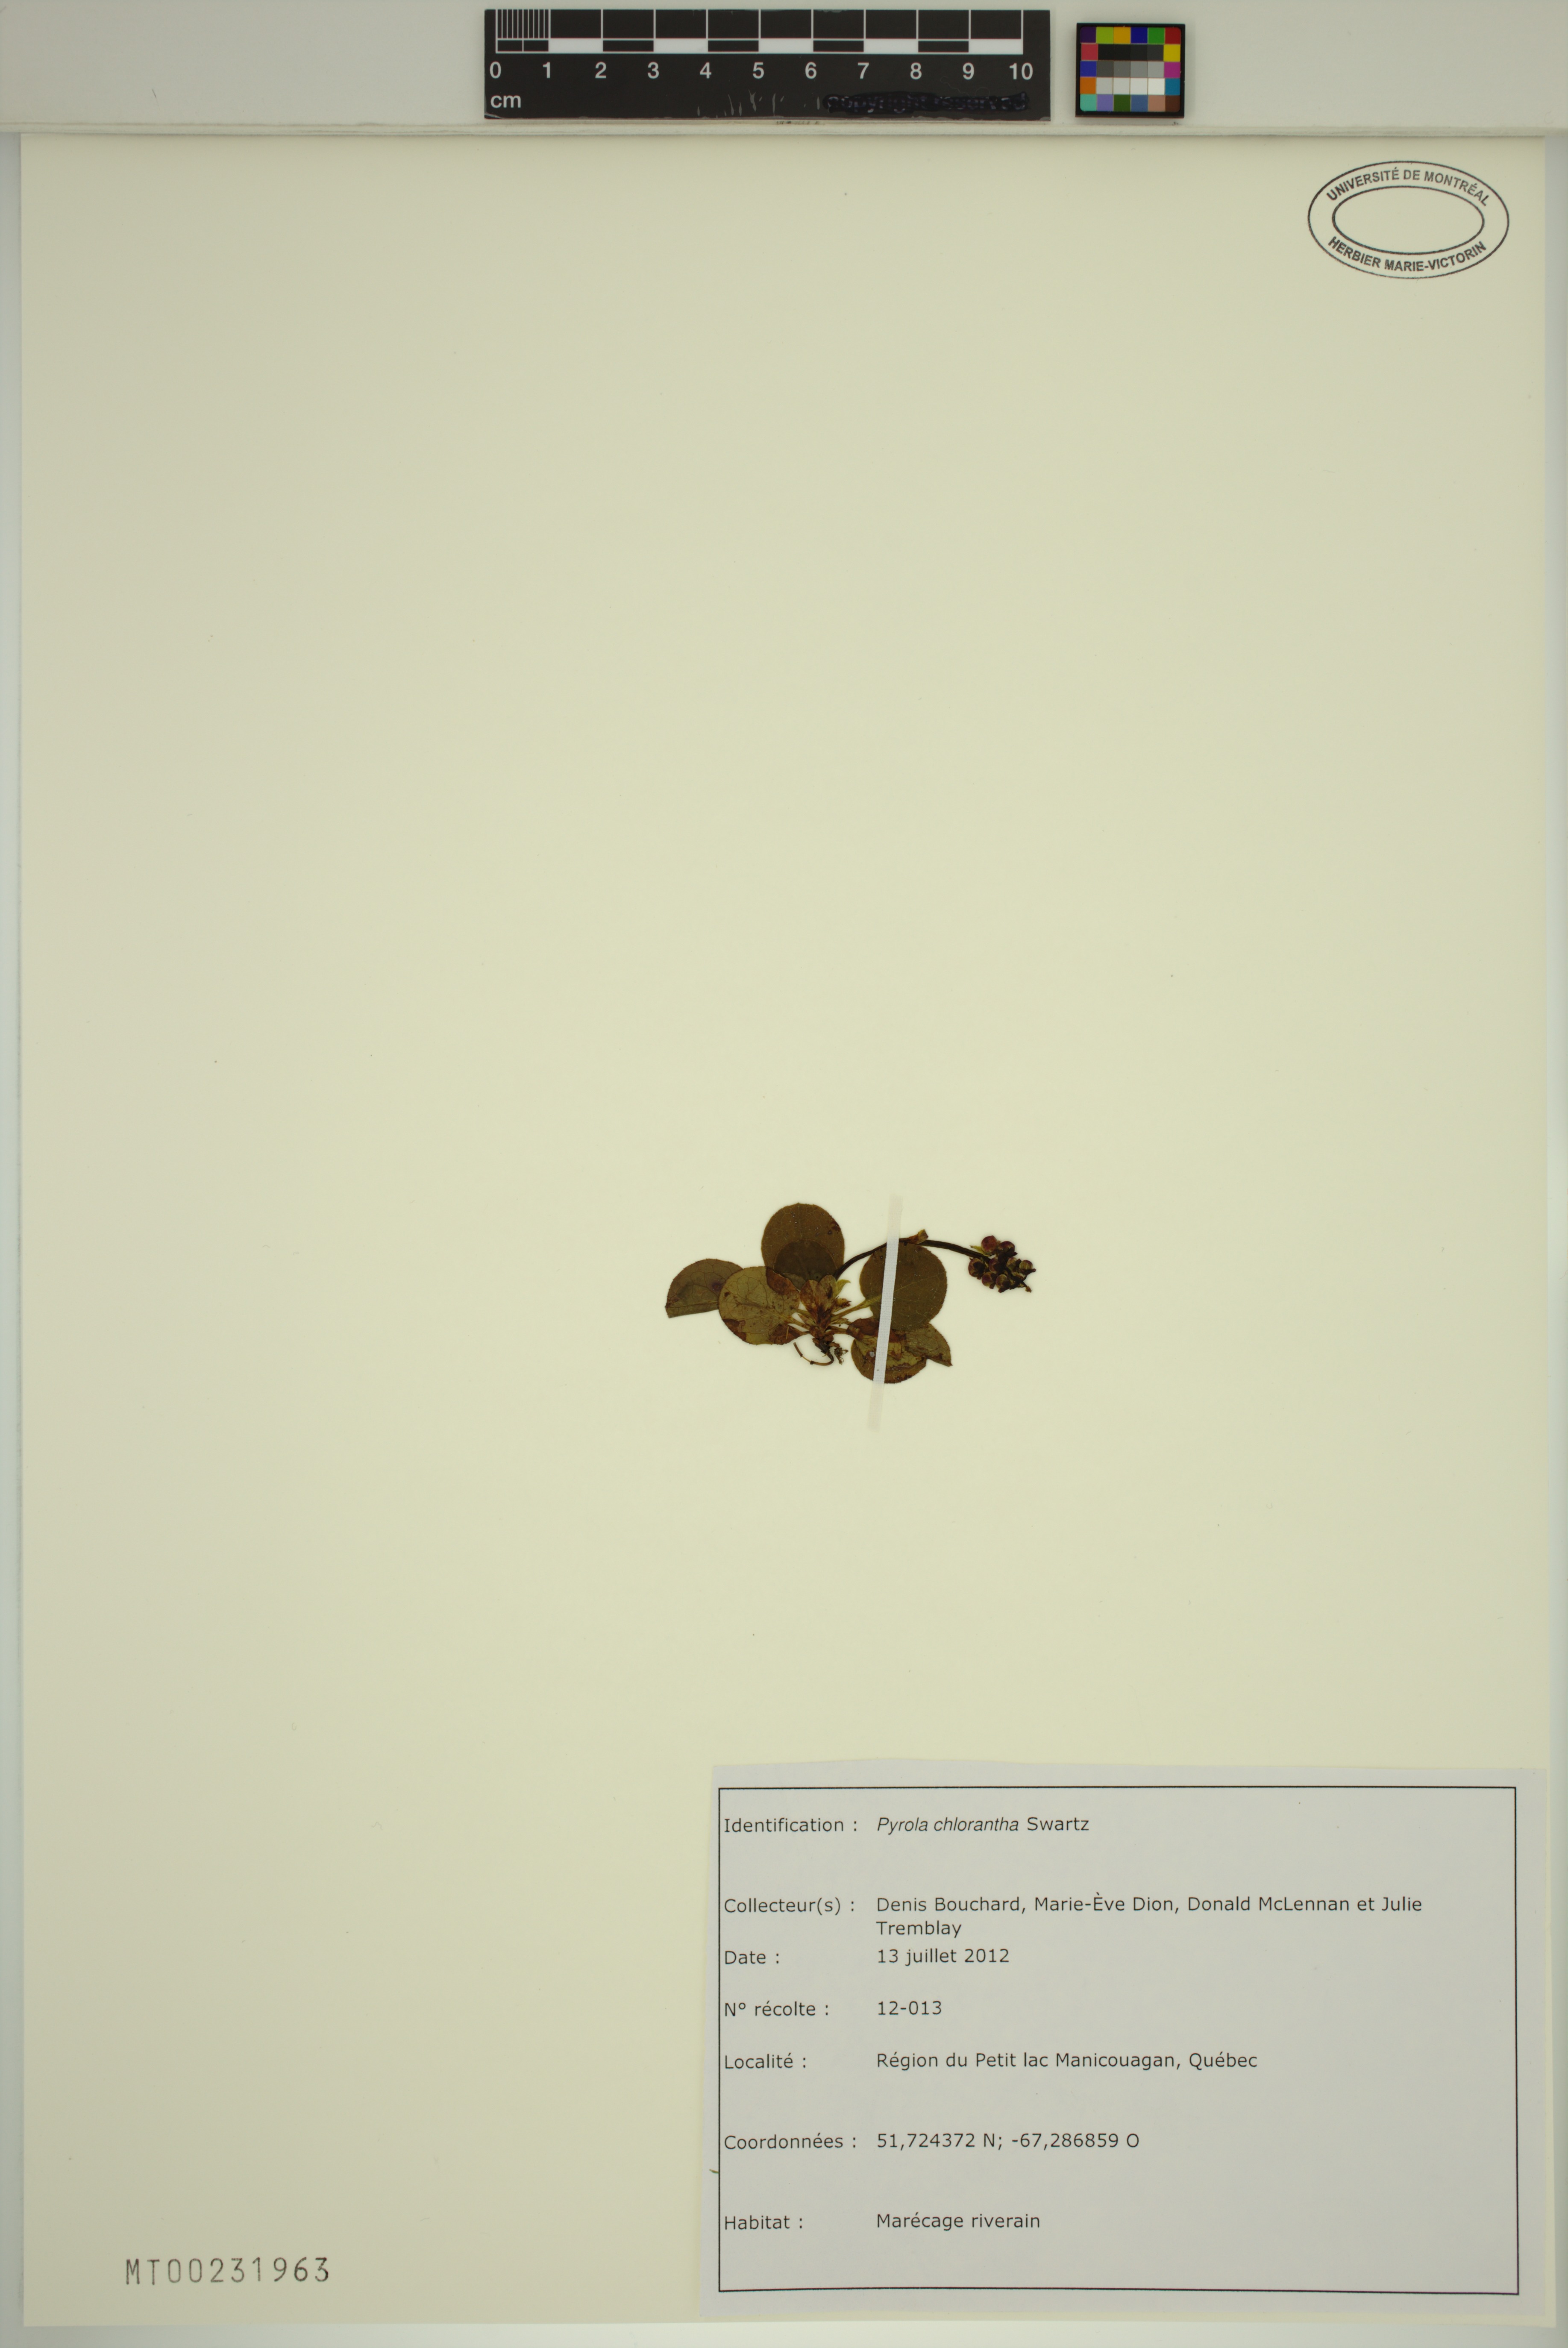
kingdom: Plantae
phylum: Tracheophyta
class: Magnoliopsida
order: Ericales
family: Ericaceae
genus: Pyrola
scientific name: Pyrola chlorantha
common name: Green wintergreen
